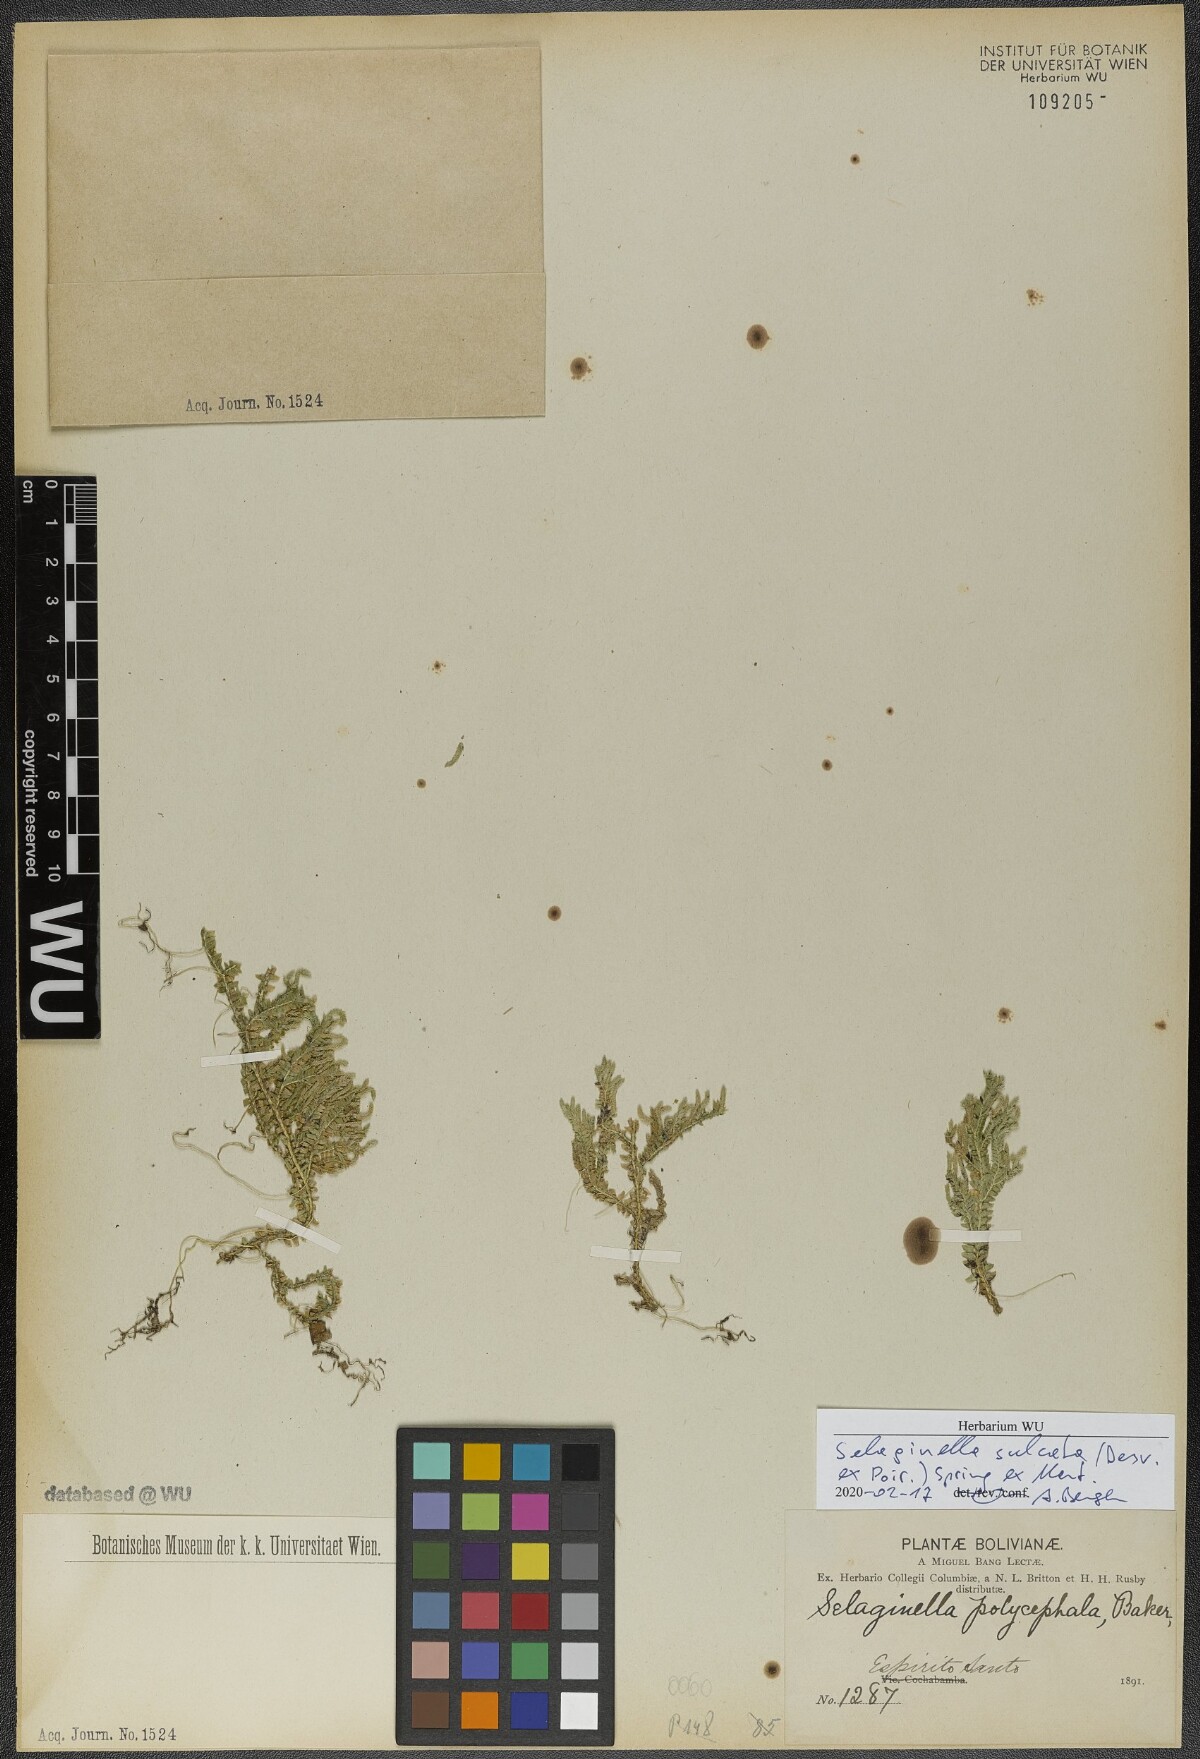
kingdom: Plantae
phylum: Tracheophyta
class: Lycopodiopsida
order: Selaginellales
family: Selaginellaceae
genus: Selaginella
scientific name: Selaginella sulcata
